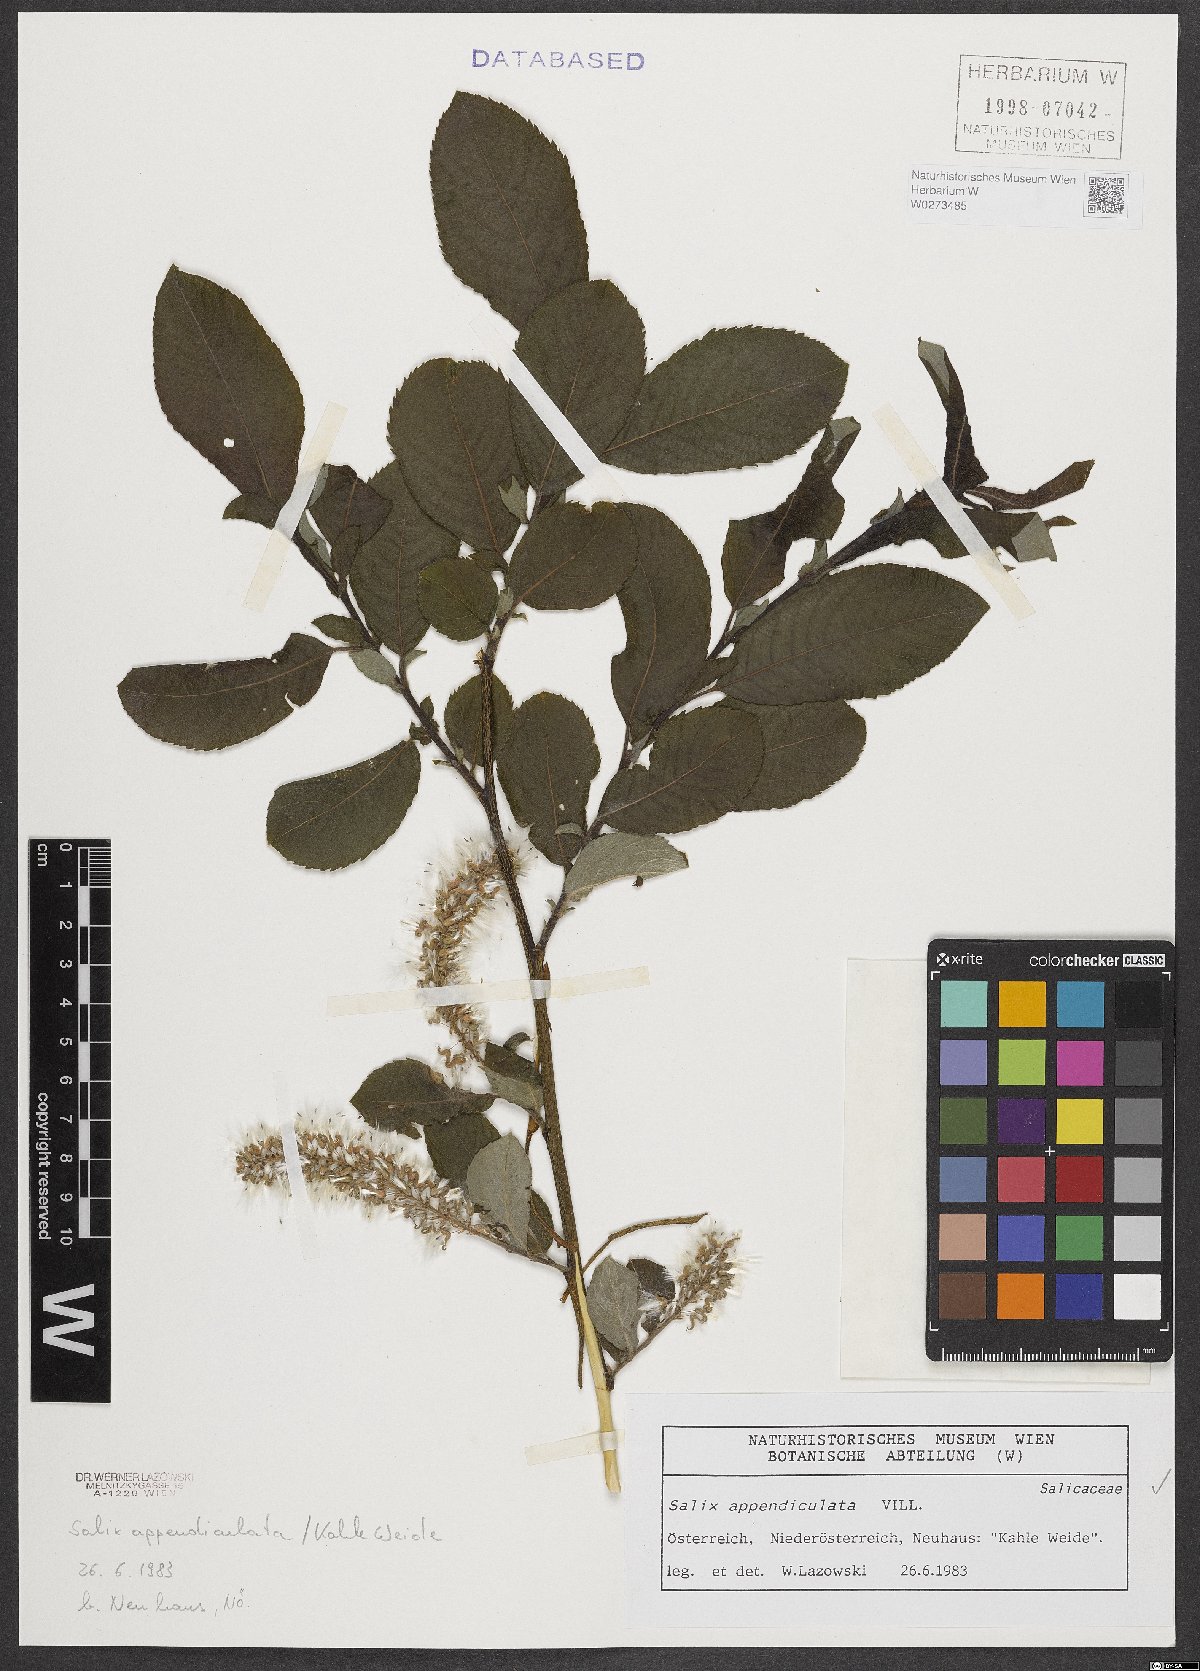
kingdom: Plantae
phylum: Tracheophyta
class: Magnoliopsida
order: Malpighiales
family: Salicaceae
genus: Salix
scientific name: Salix appendiculata
